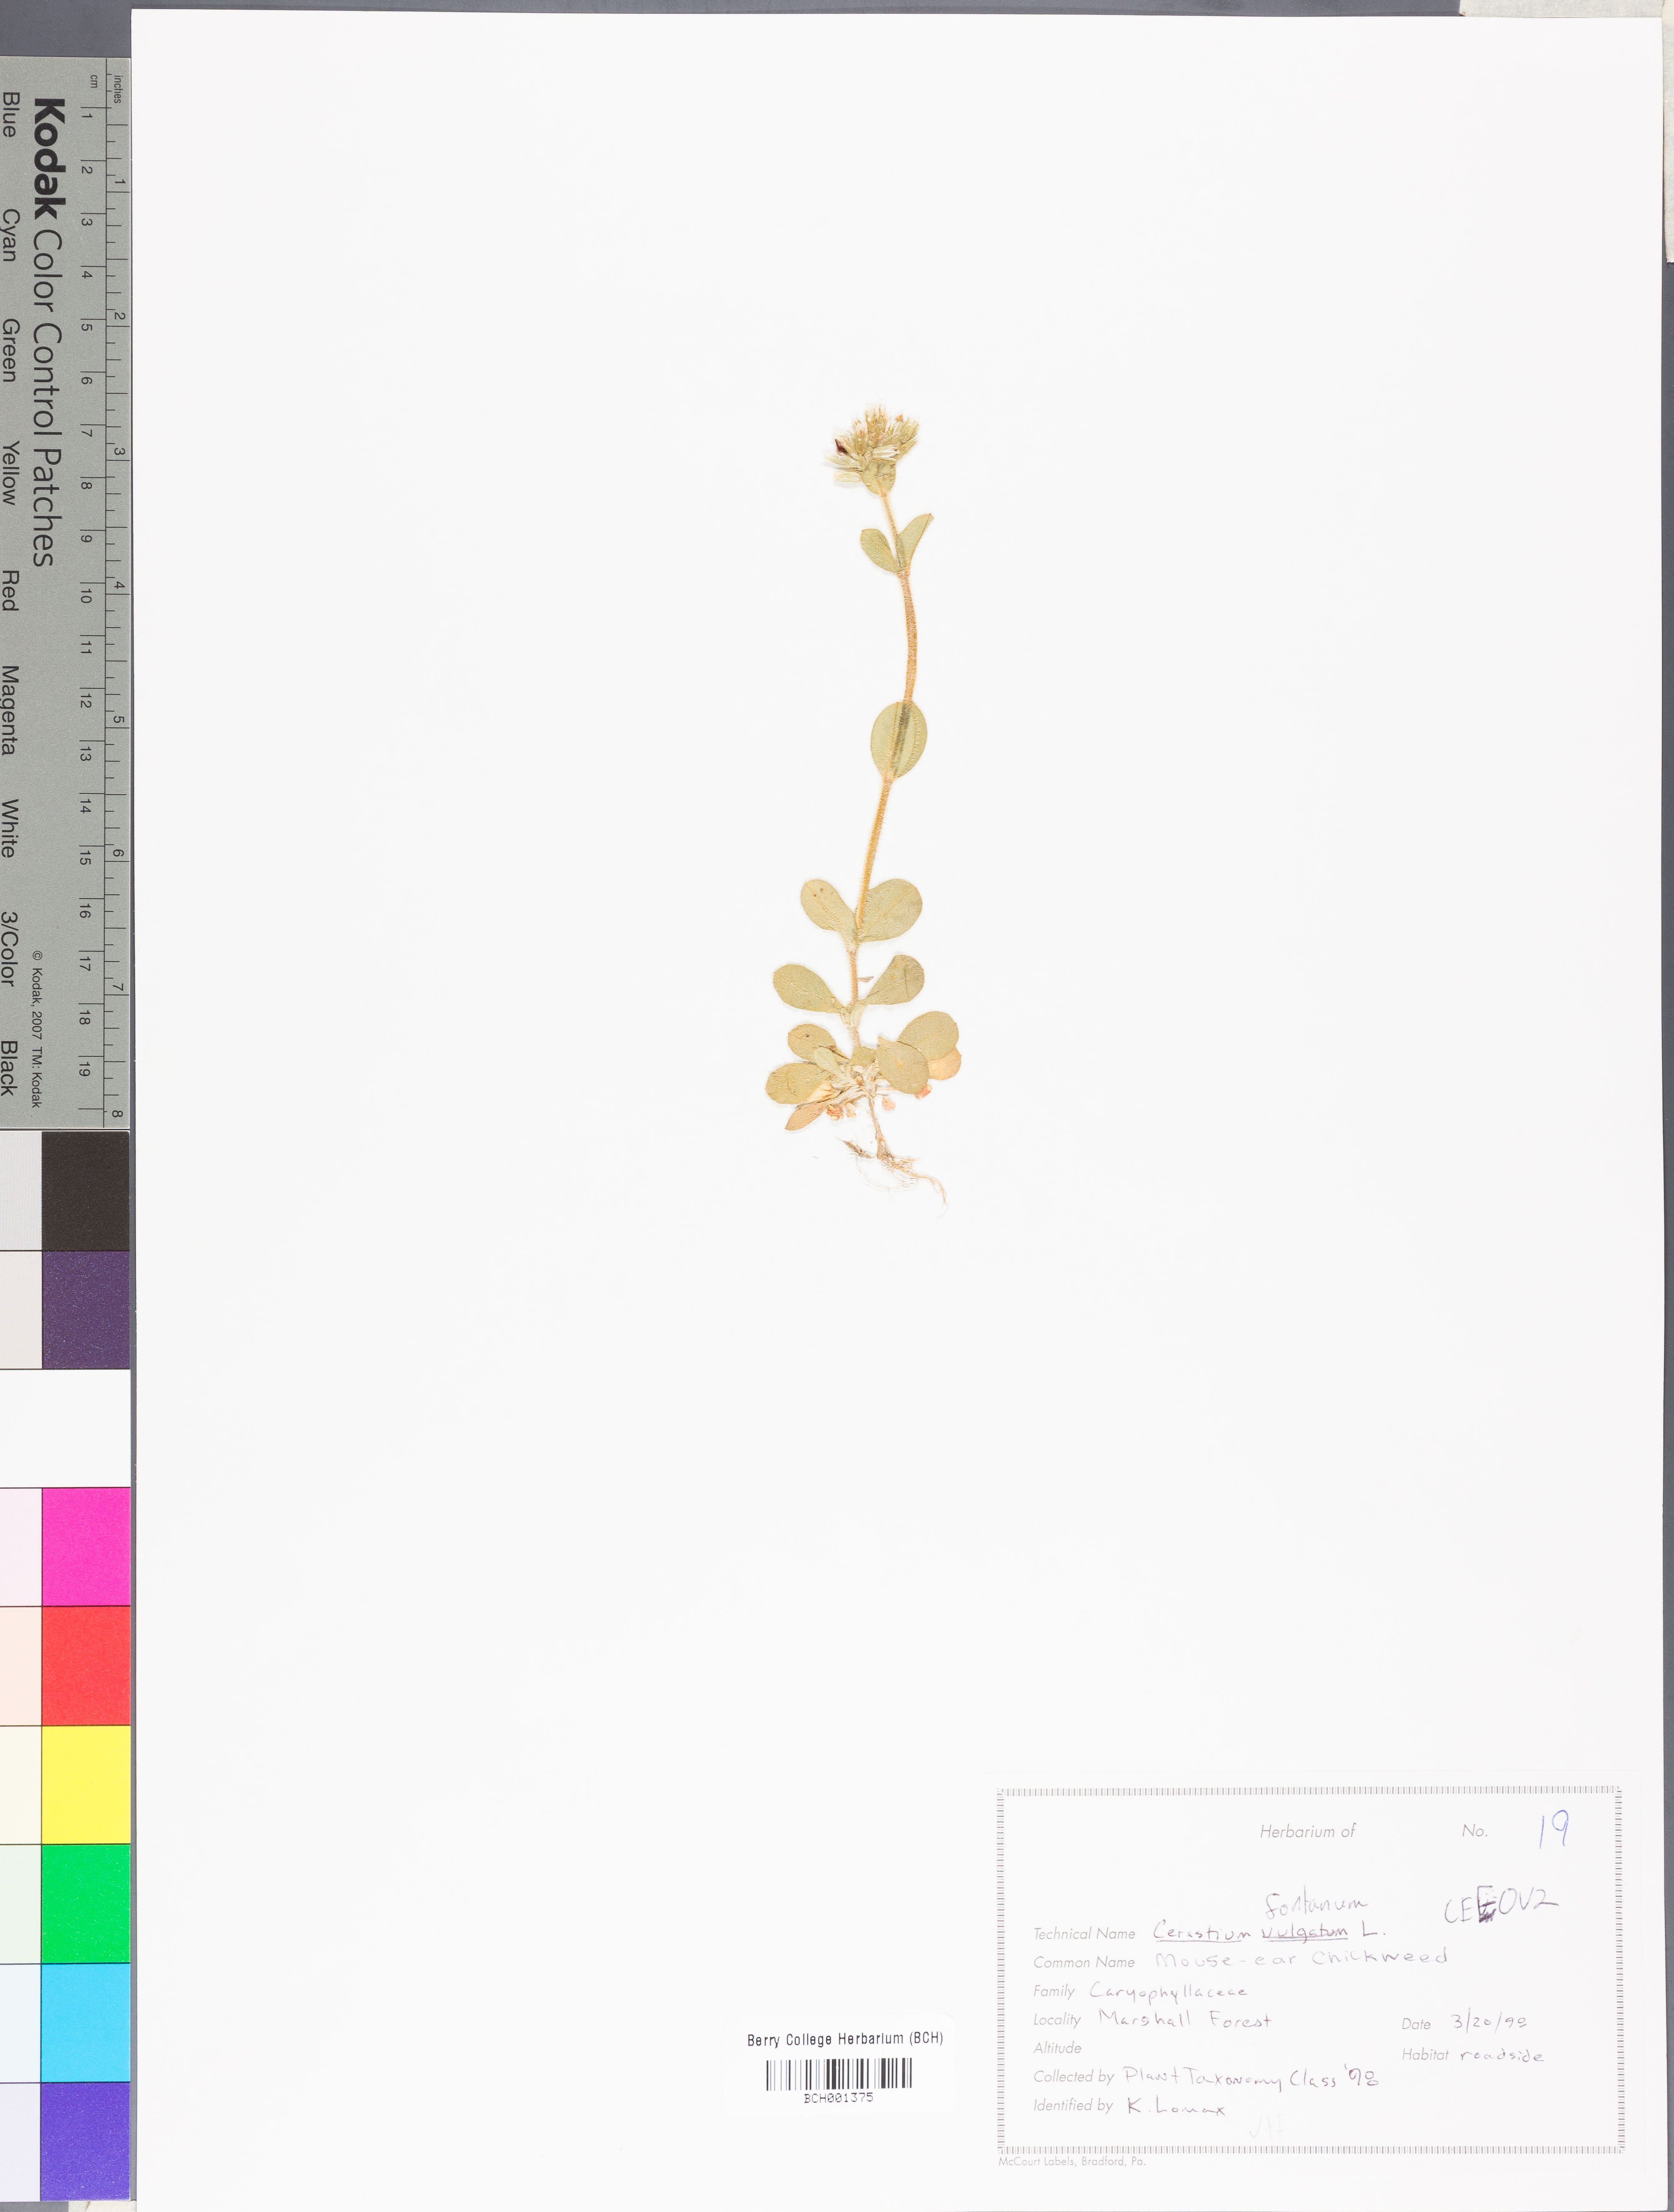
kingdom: Plantae
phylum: Tracheophyta
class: Magnoliopsida
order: Caryophyllales
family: Caryophyllaceae
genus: Cerastium
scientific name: Cerastium holosteoides
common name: Big chickweed
